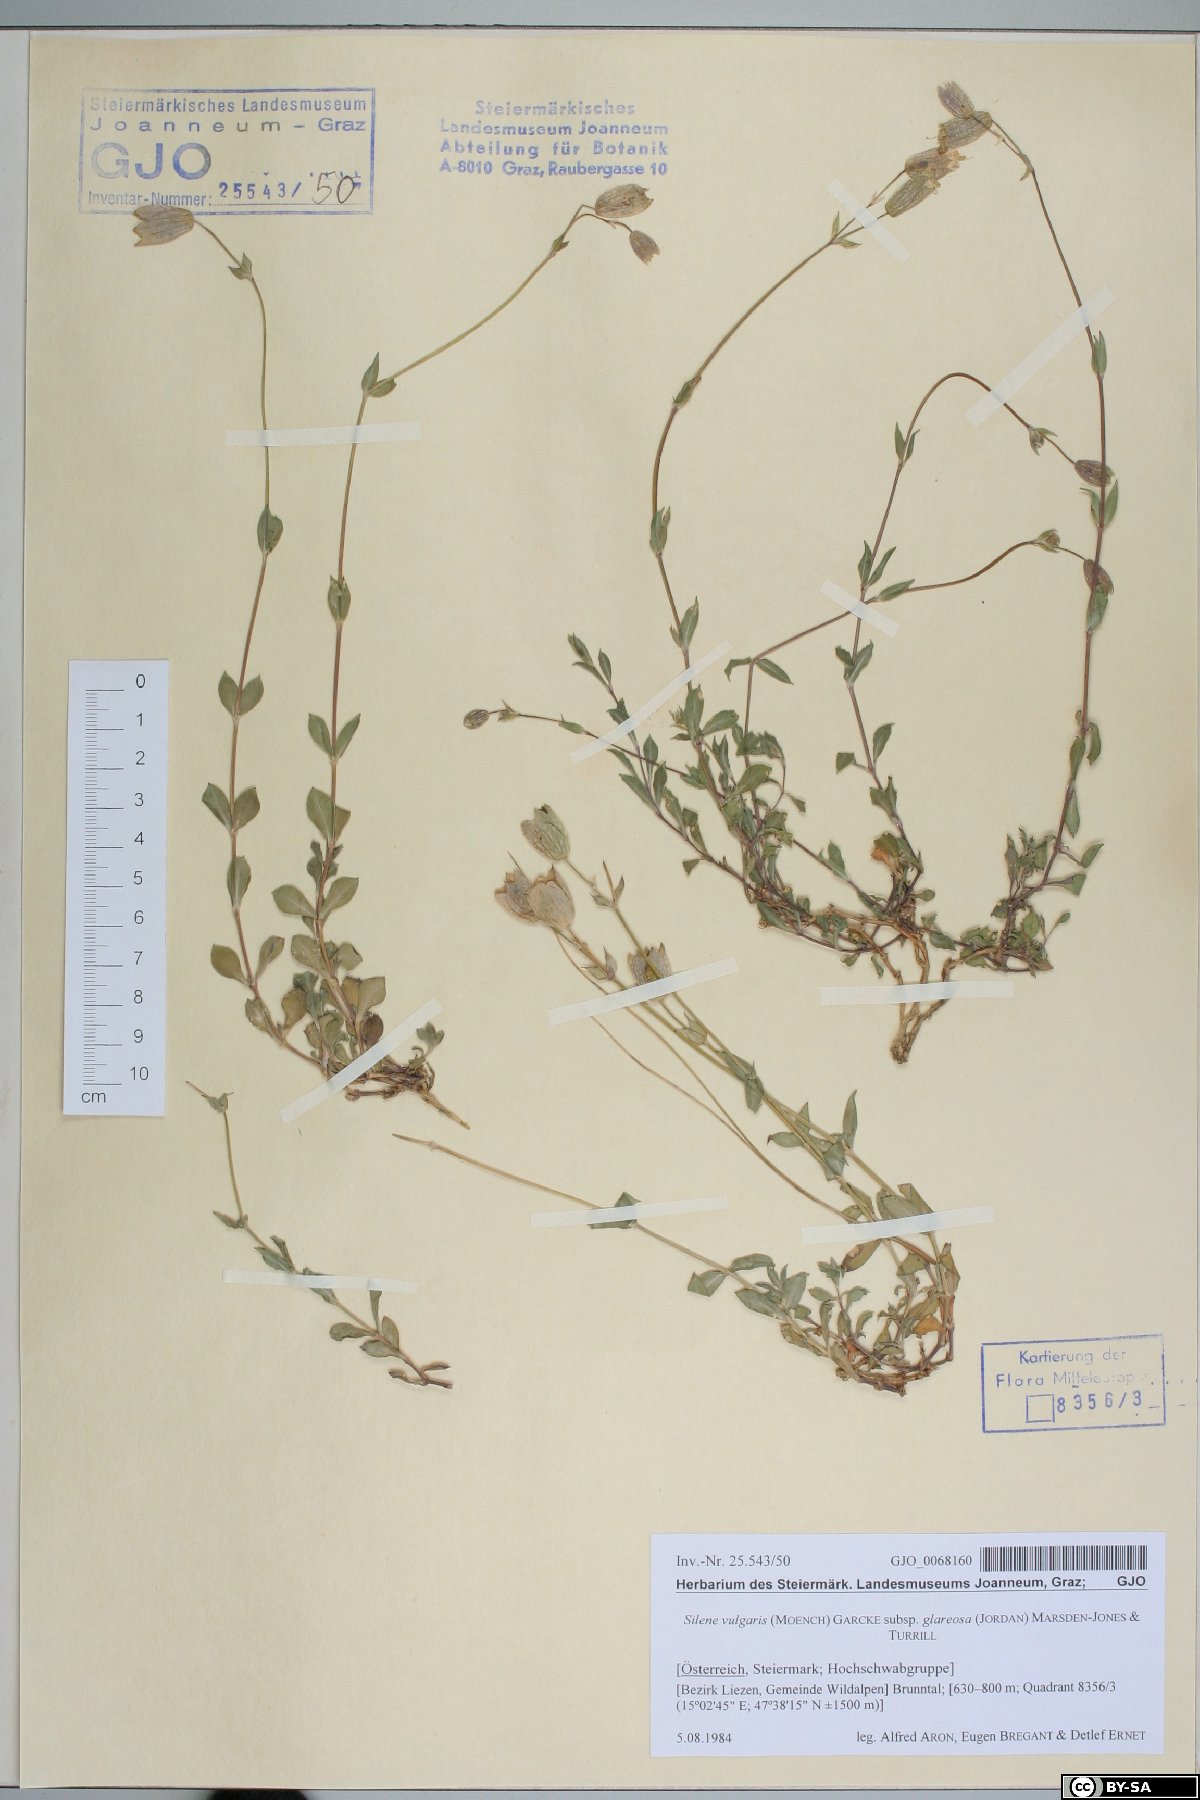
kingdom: Plantae
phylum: Tracheophyta
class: Magnoliopsida
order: Caryophyllales
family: Caryophyllaceae
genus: Silene
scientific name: Silene glareosa
